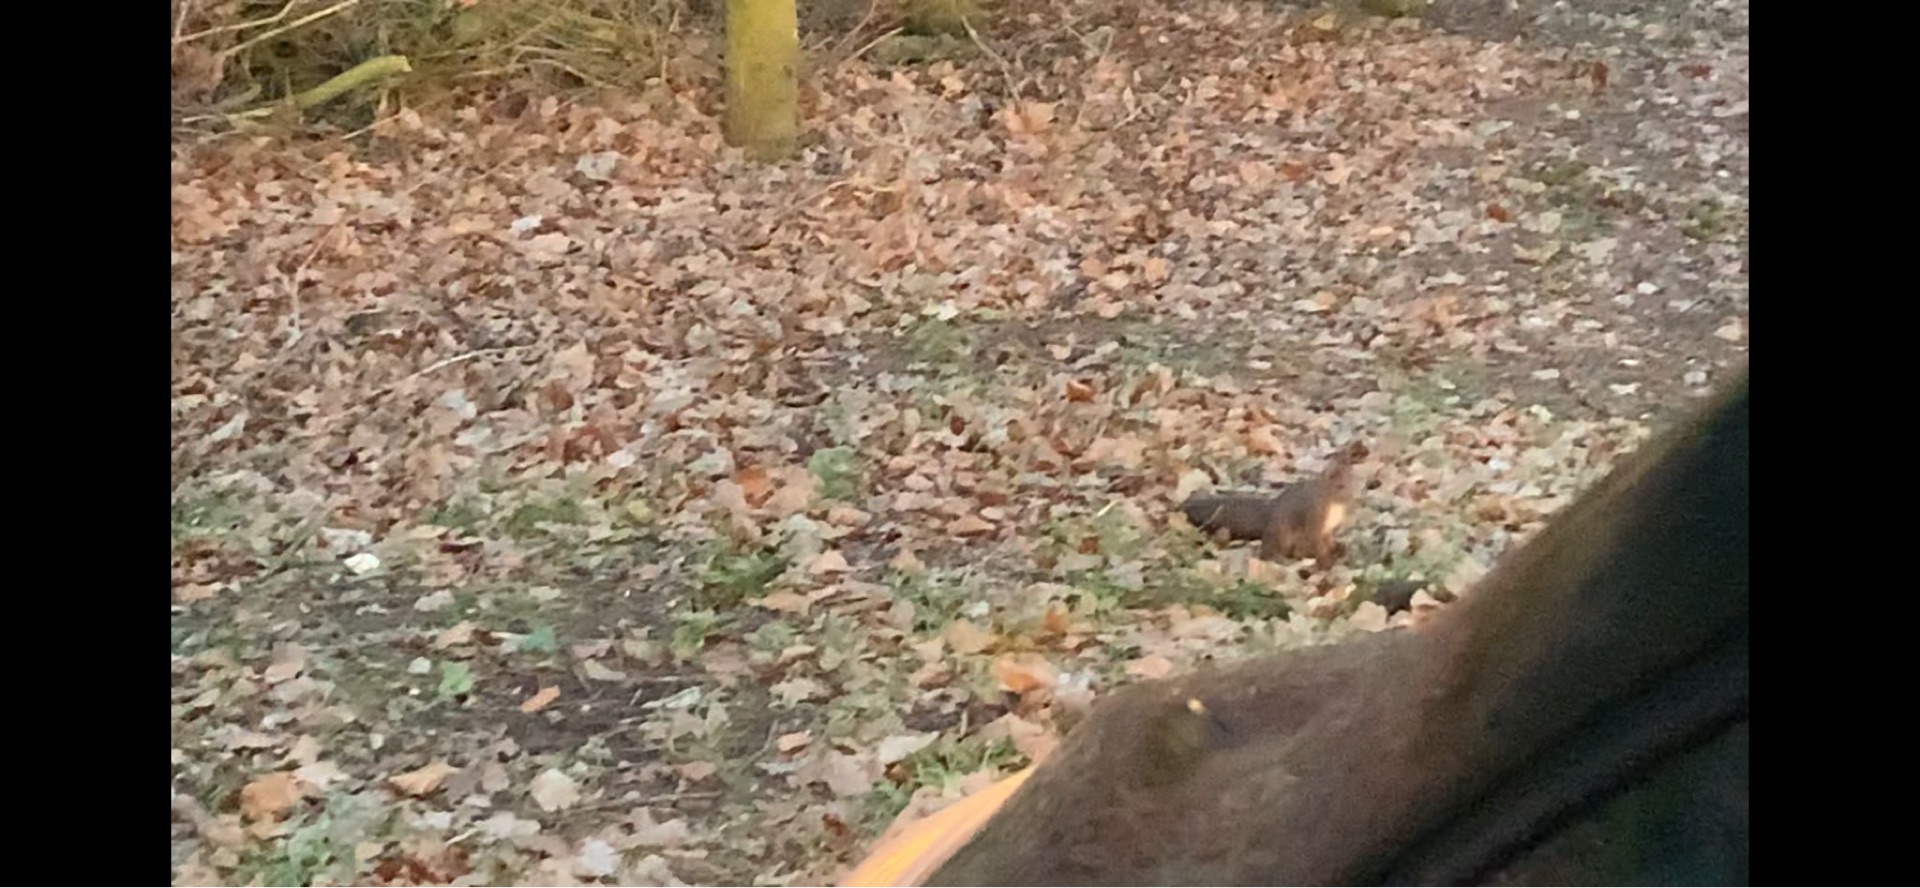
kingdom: Animalia
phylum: Chordata
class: Mammalia
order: Rodentia
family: Sciuridae
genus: Sciurus
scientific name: Sciurus vulgaris
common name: Egern
